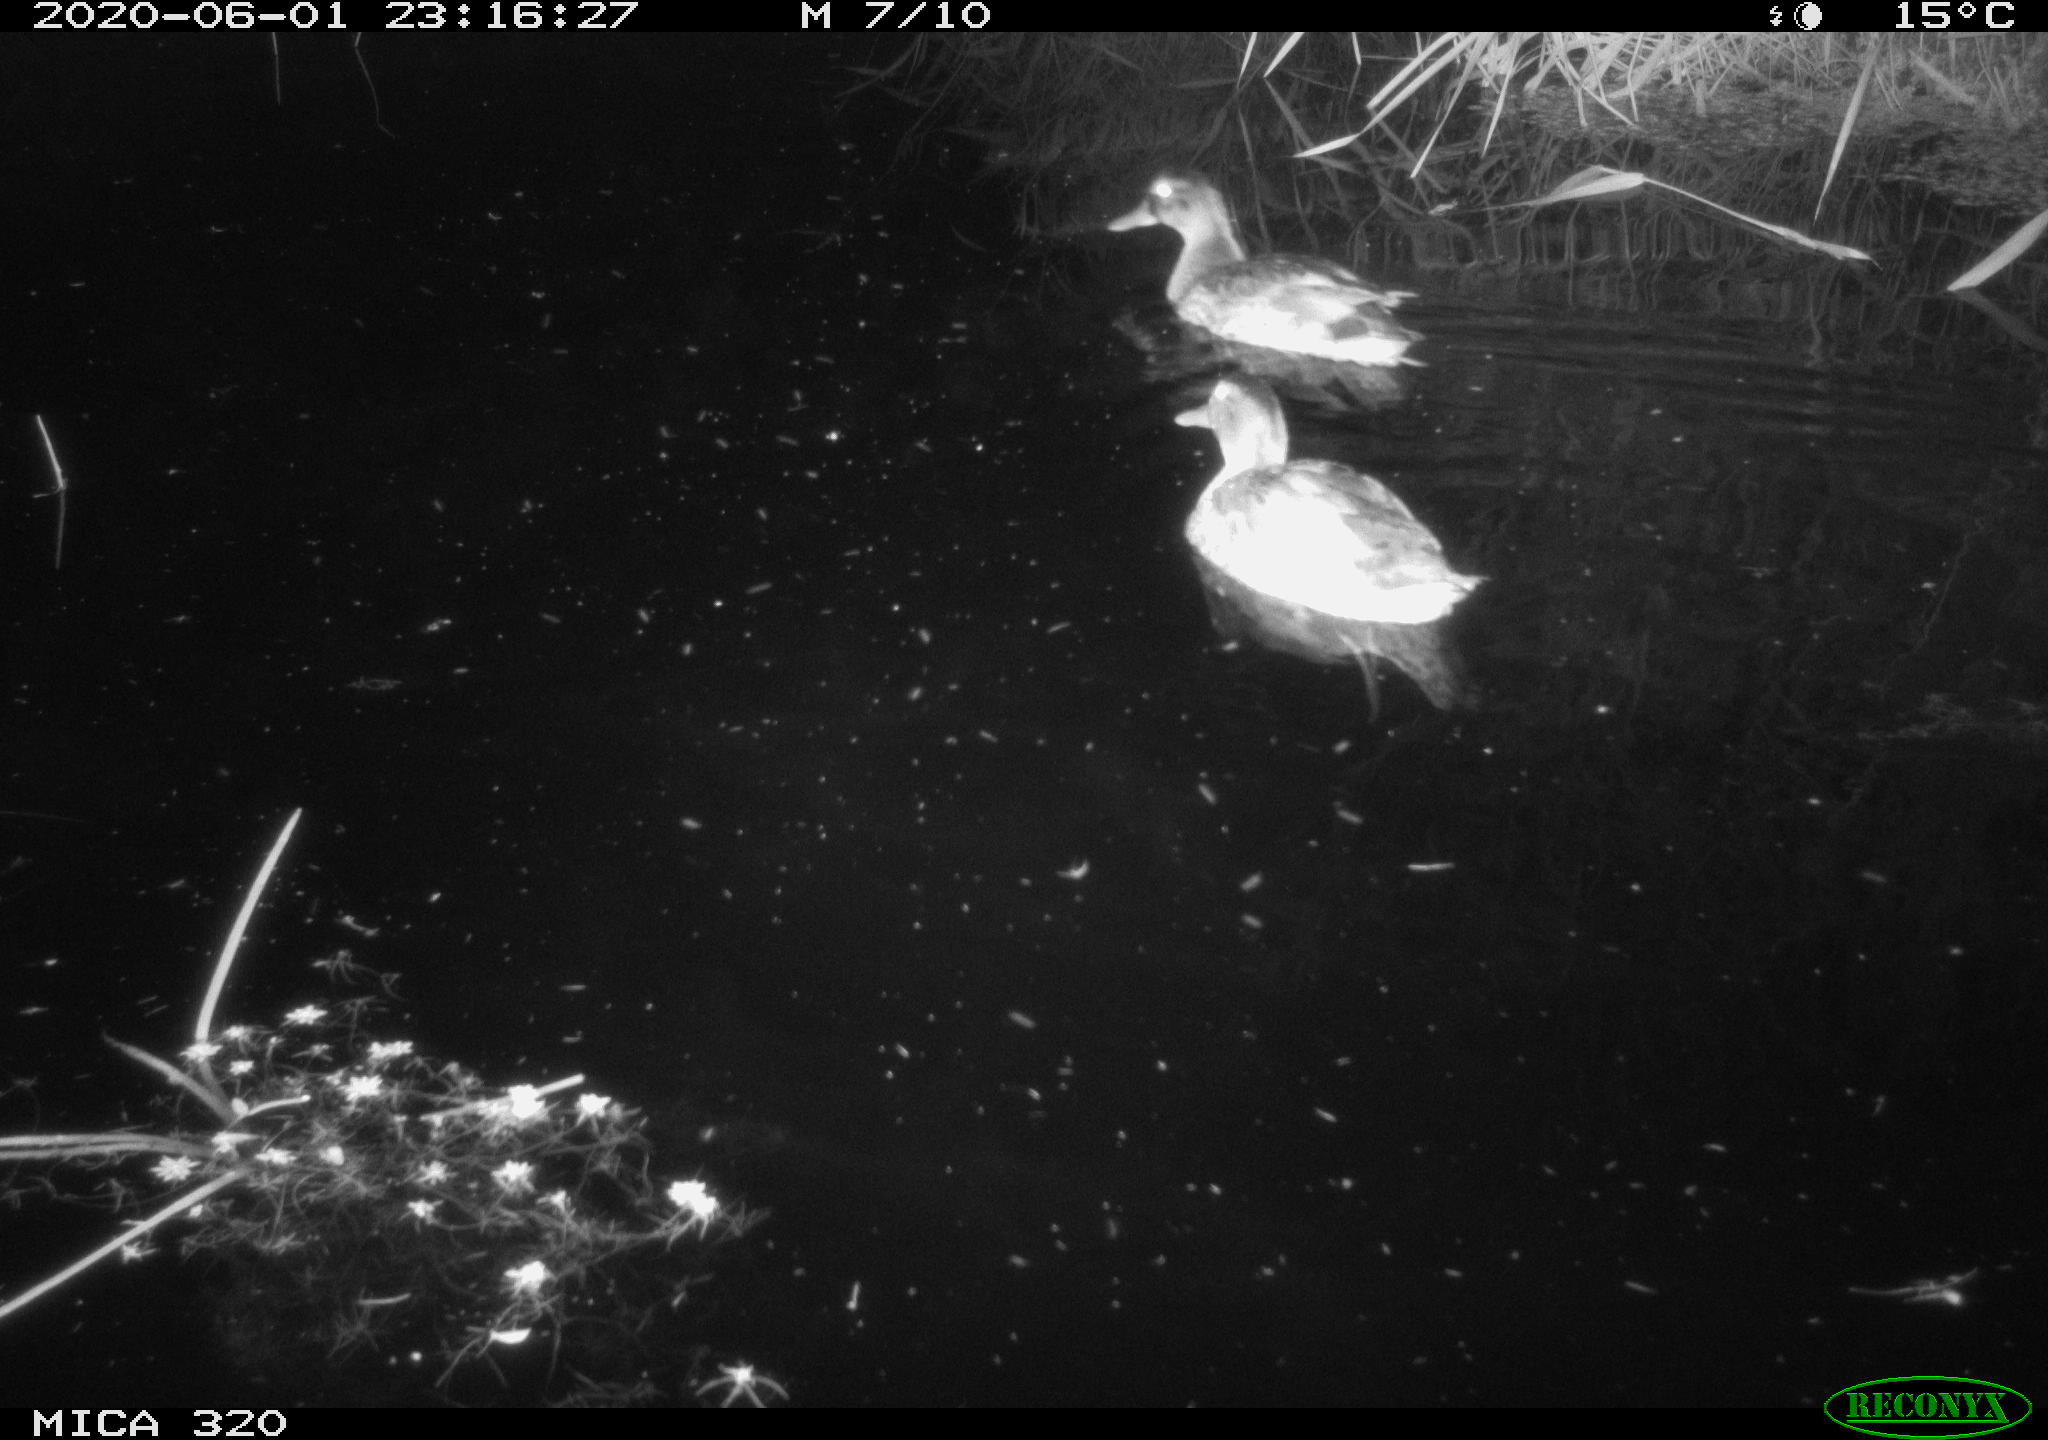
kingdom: Animalia
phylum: Chordata
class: Aves
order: Anseriformes
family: Anatidae
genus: Anas
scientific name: Anas platyrhynchos
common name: Mallard
